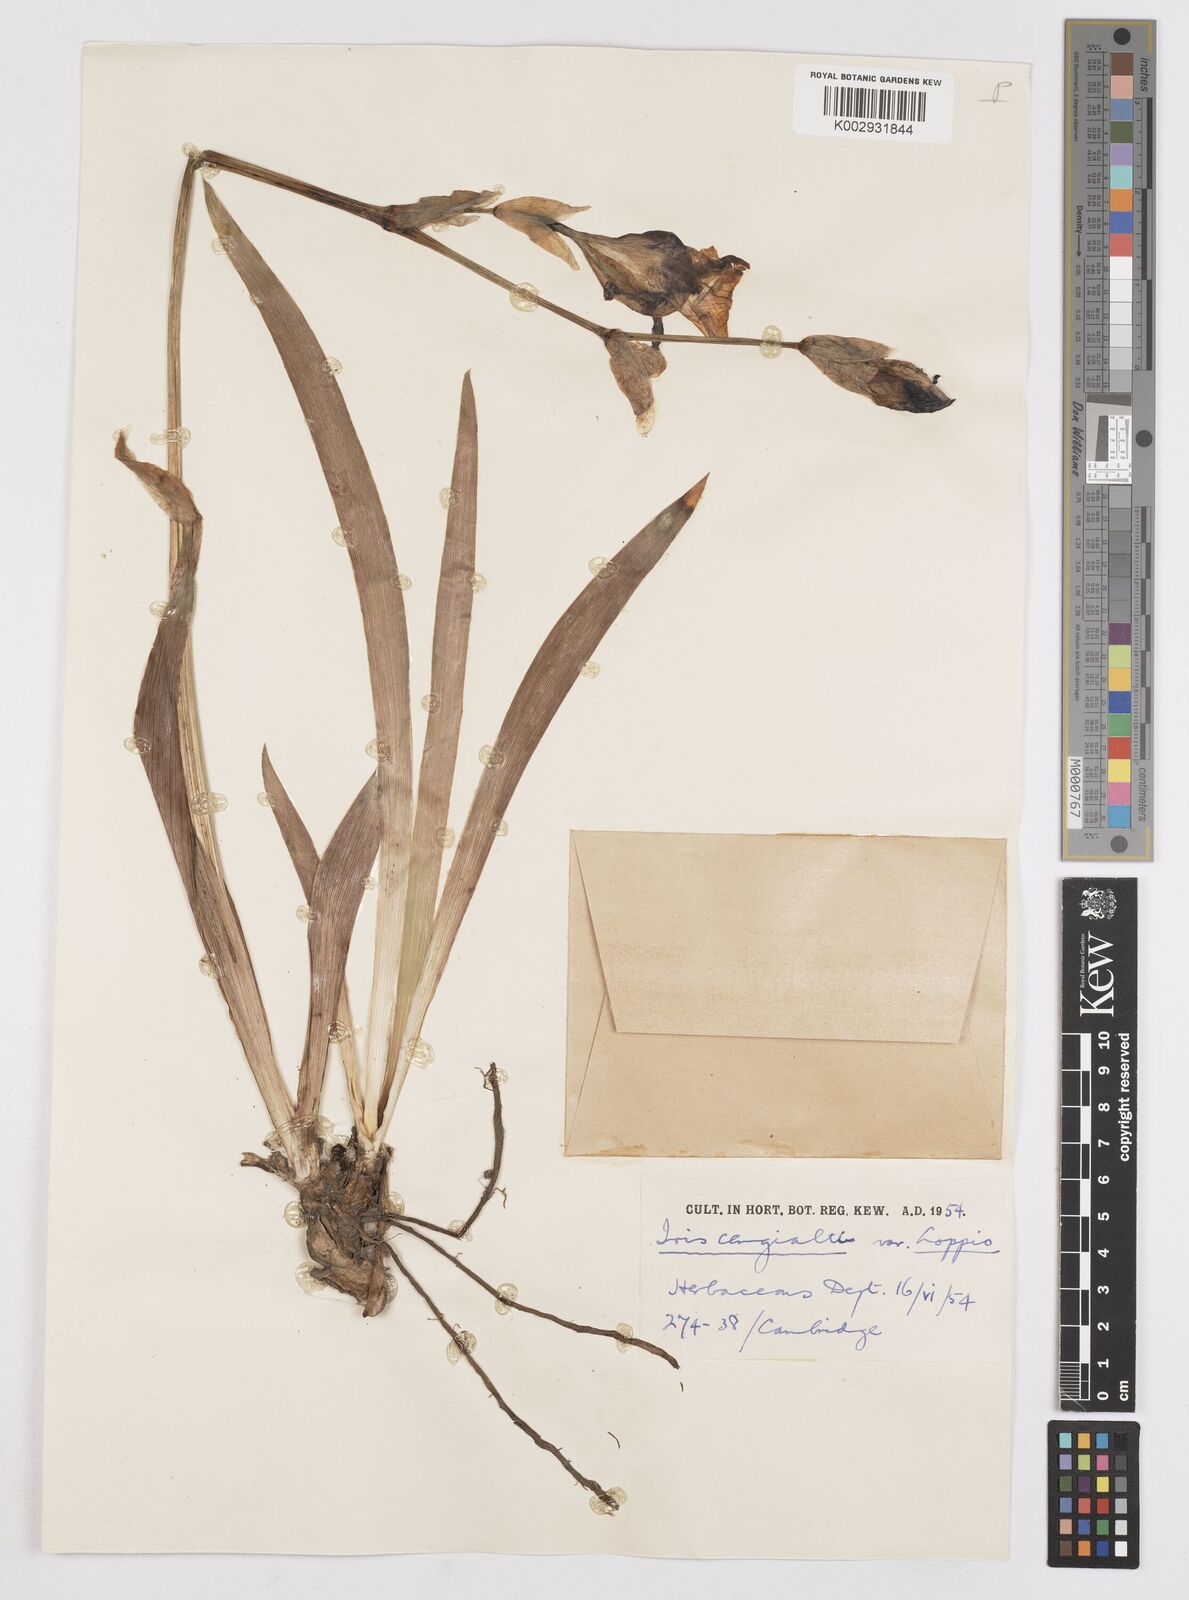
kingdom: Plantae
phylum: Tracheophyta
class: Liliopsida
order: Asparagales
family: Iridaceae
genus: Iris
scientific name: Iris pallida
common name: Sweet iris
